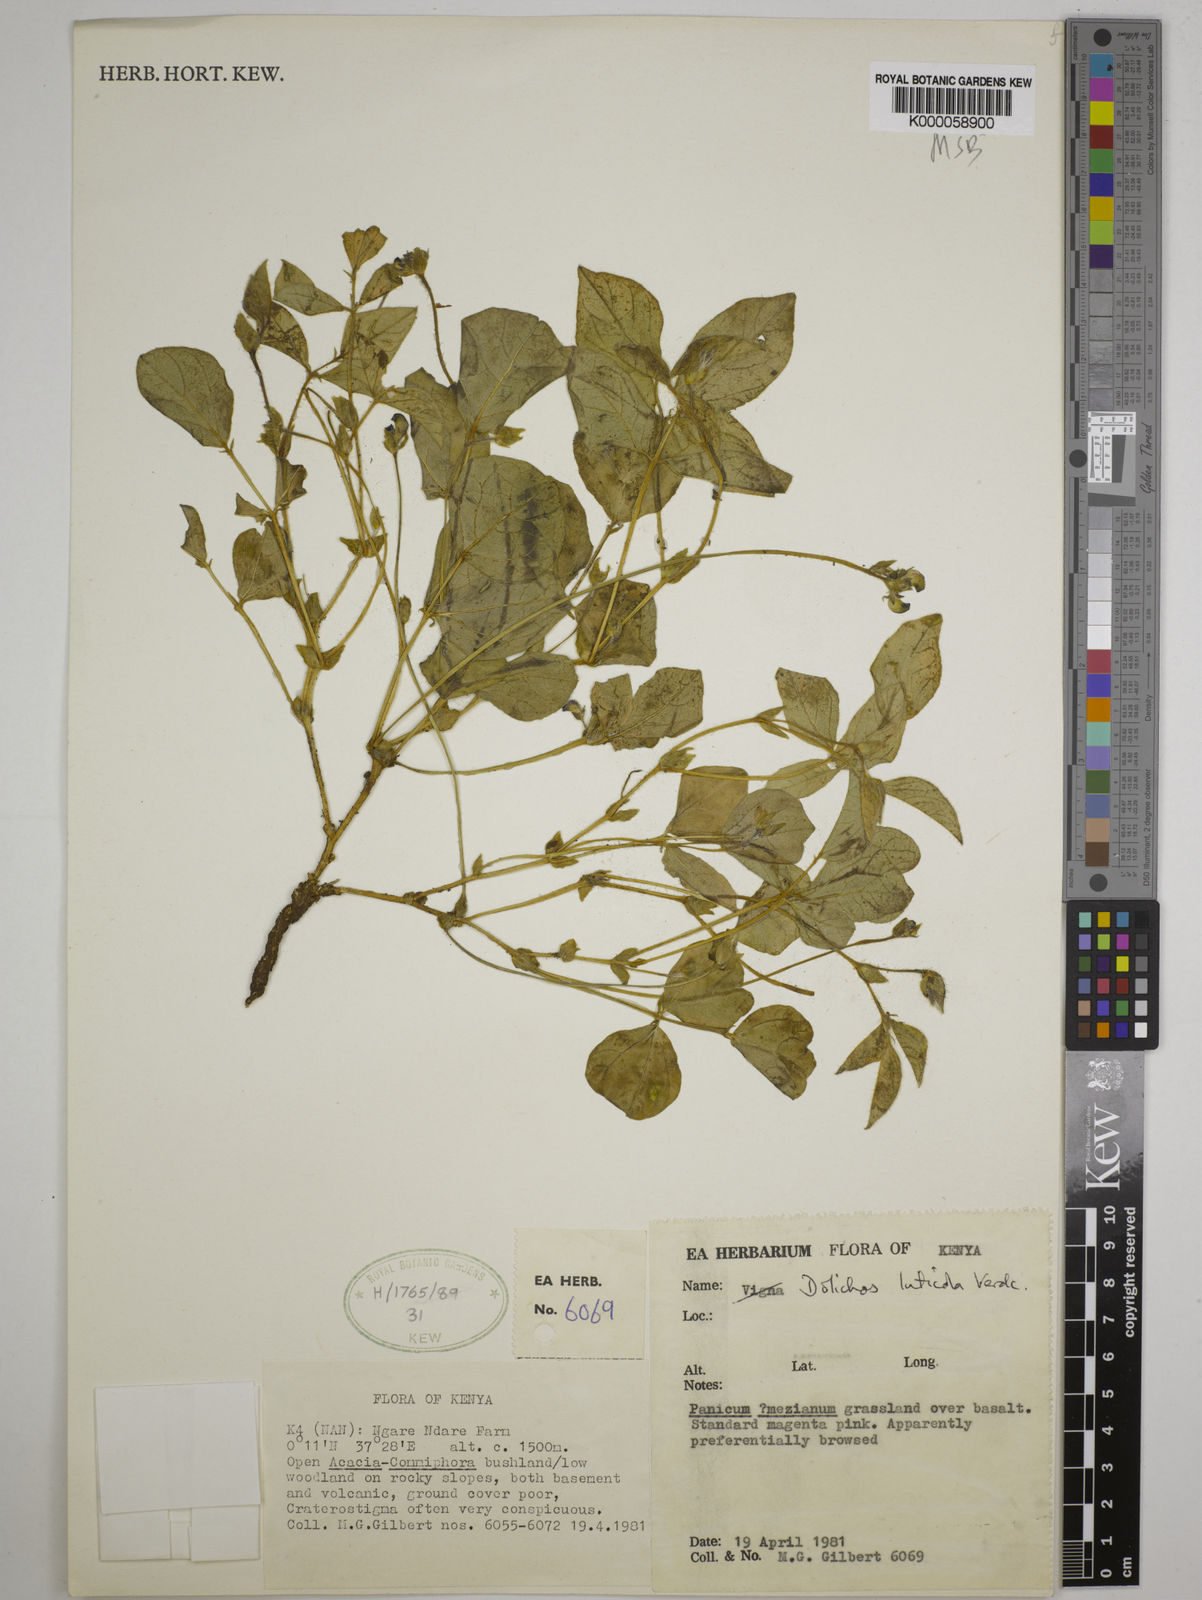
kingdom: Plantae
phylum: Tracheophyta
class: Magnoliopsida
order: Fabales
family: Fabaceae
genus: Dolichos
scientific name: Dolichos luticola
